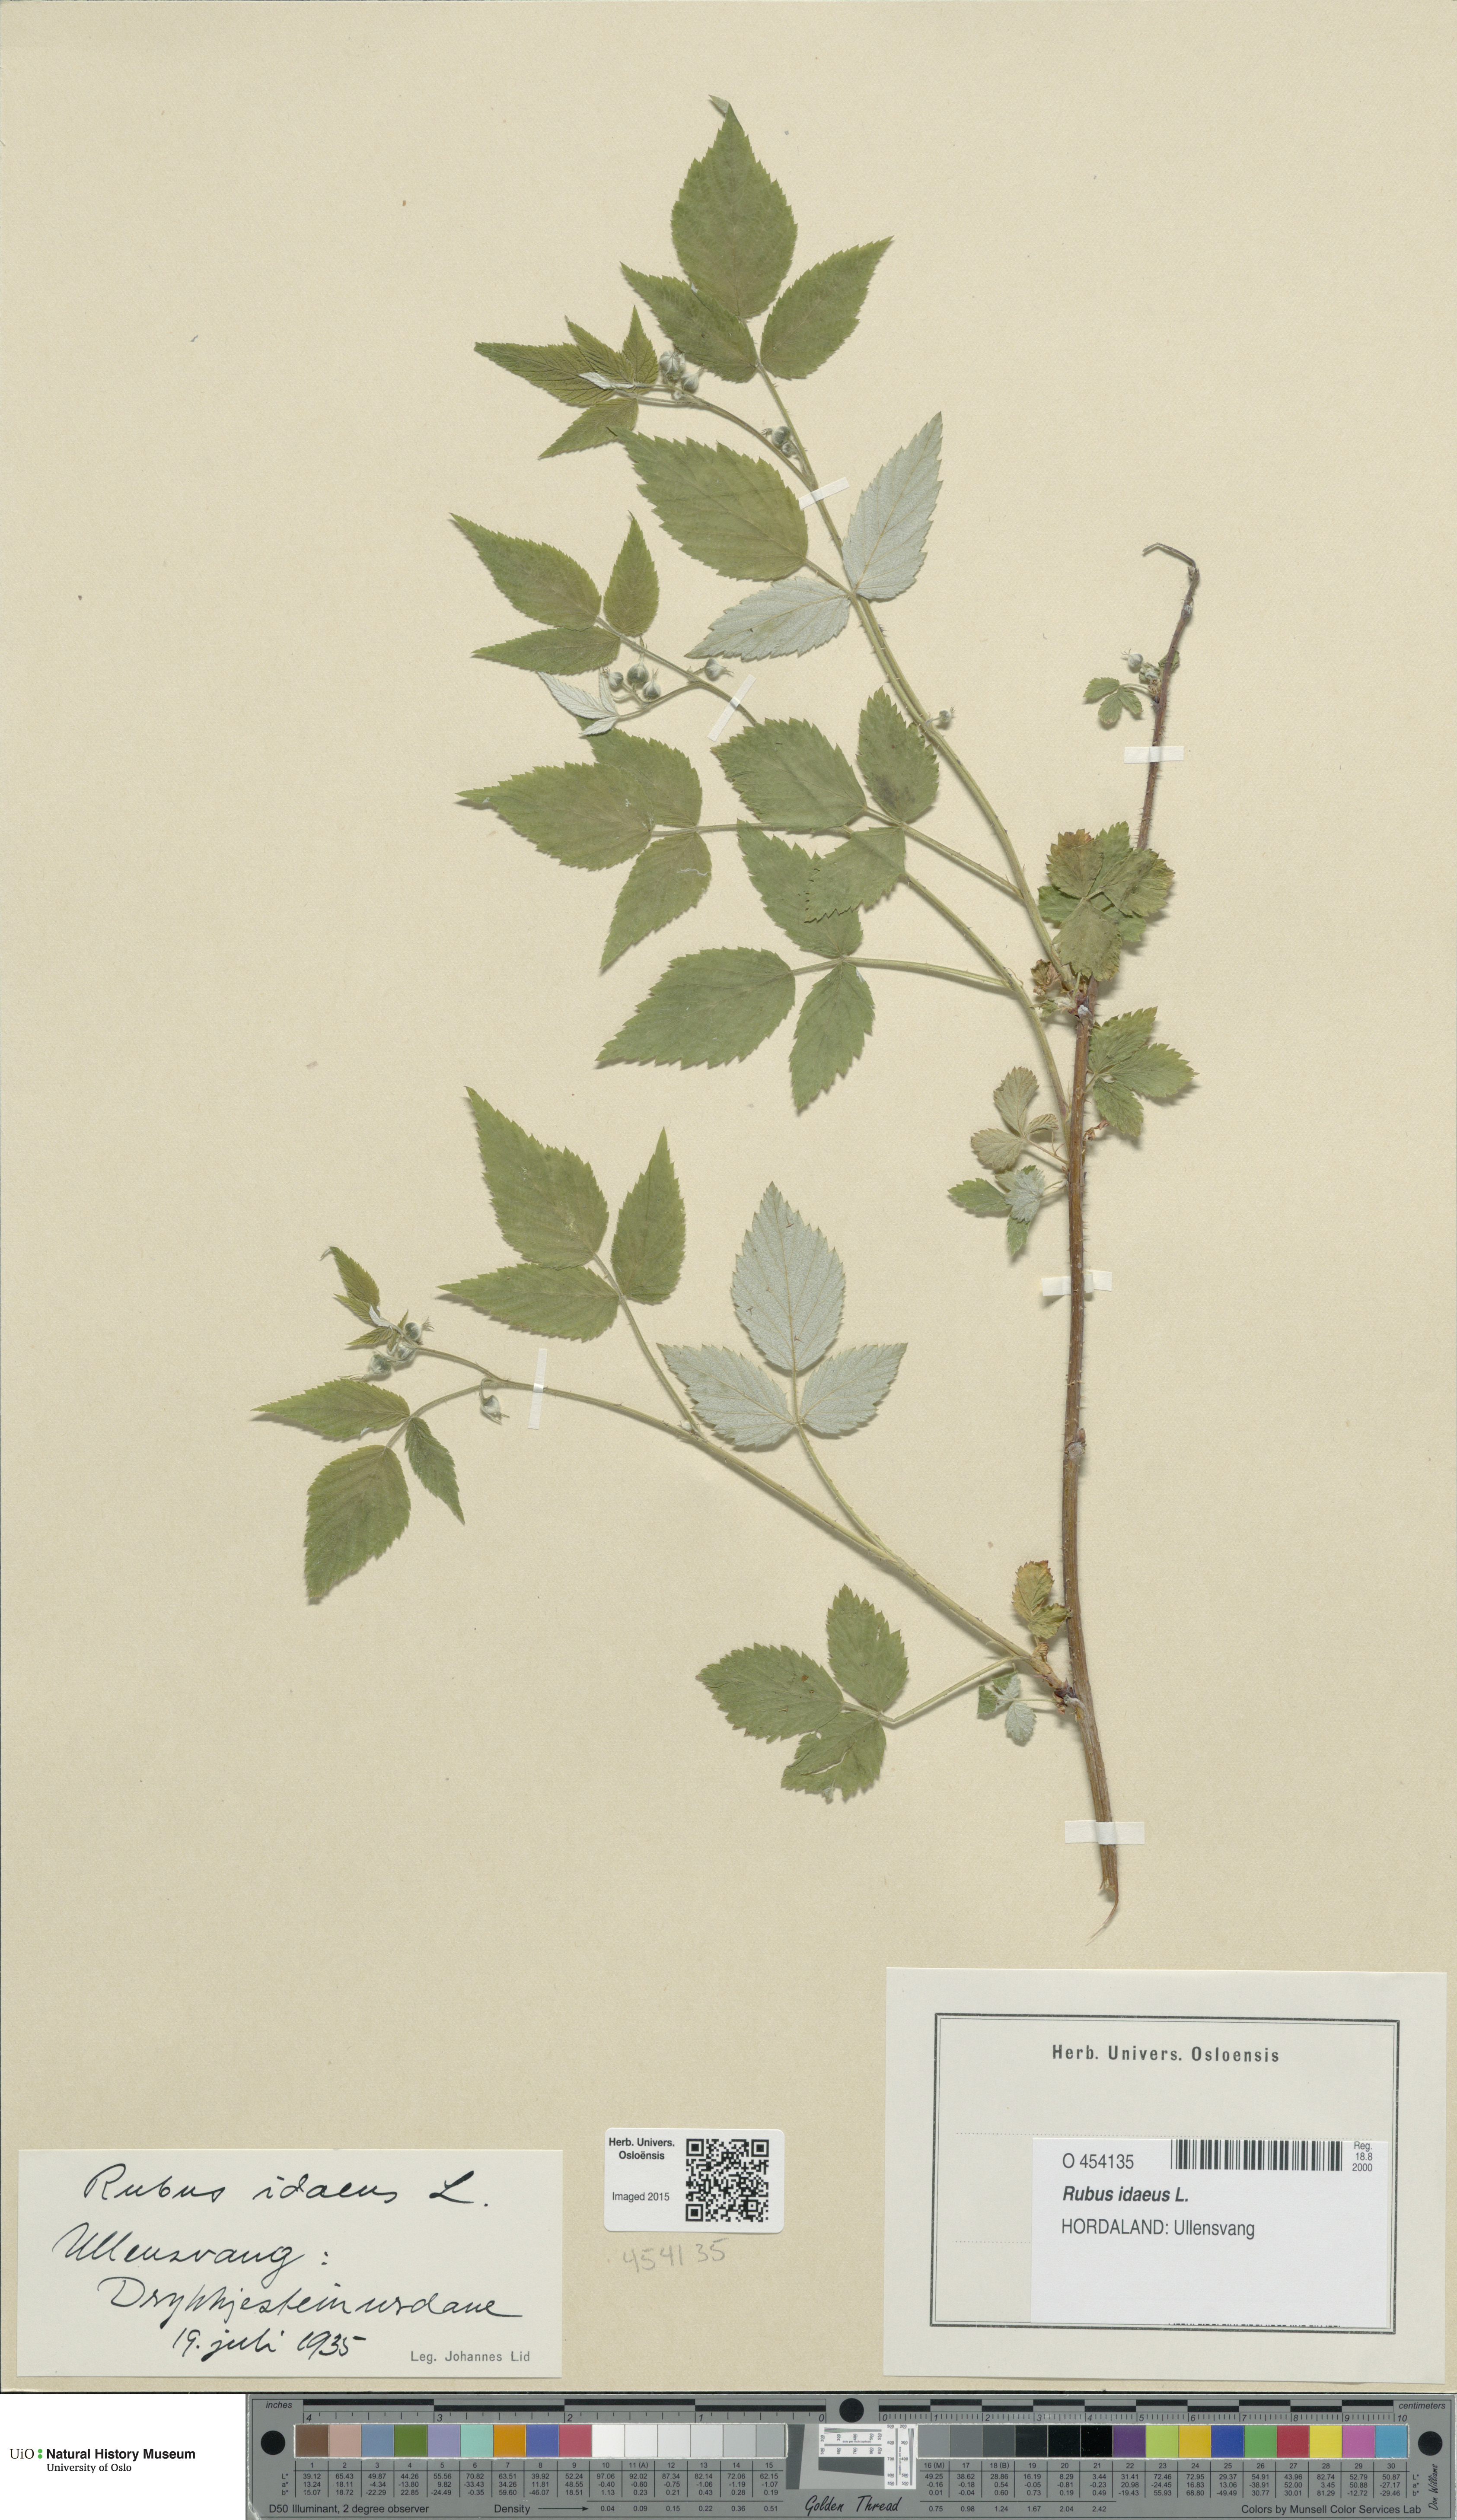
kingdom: Plantae
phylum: Tracheophyta
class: Magnoliopsida
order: Rosales
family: Rosaceae
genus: Rubus
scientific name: Rubus idaeus
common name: Raspberry
